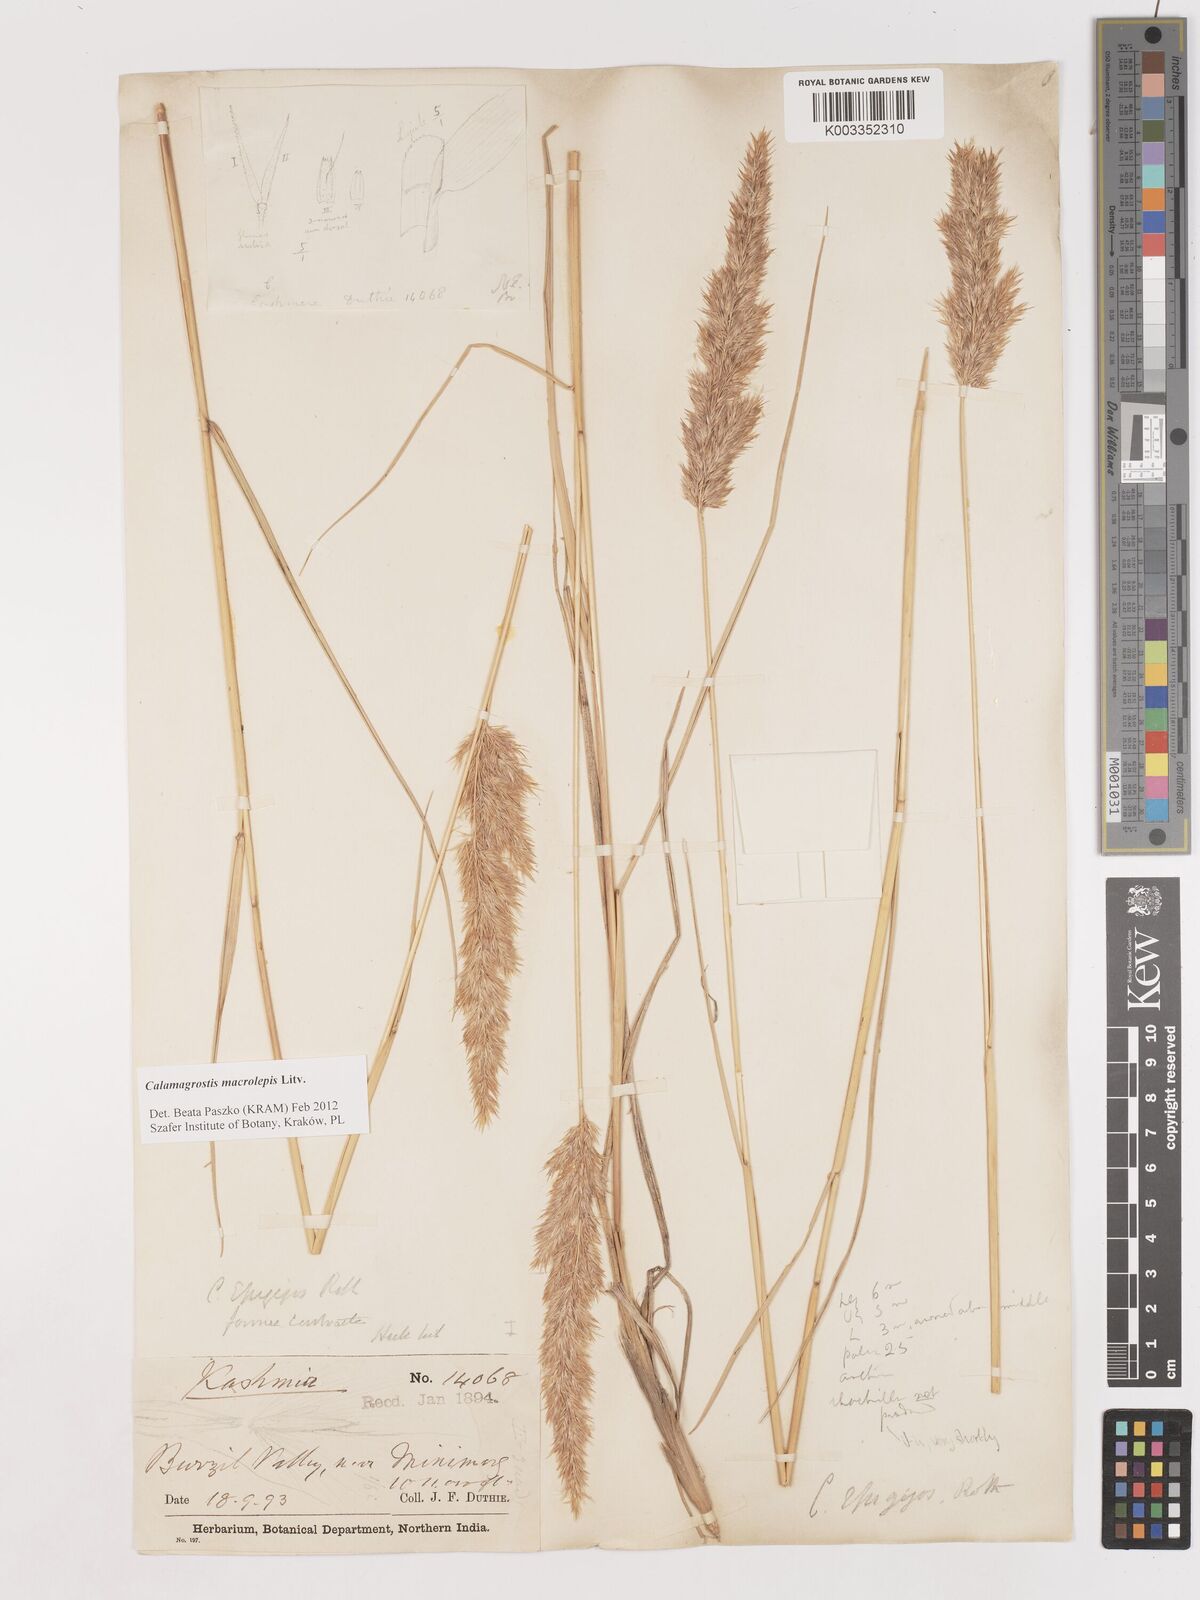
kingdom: Plantae
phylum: Tracheophyta
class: Liliopsida
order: Poales
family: Poaceae
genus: Calamagrostis
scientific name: Calamagrostis epigejos
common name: Wood small-reed
